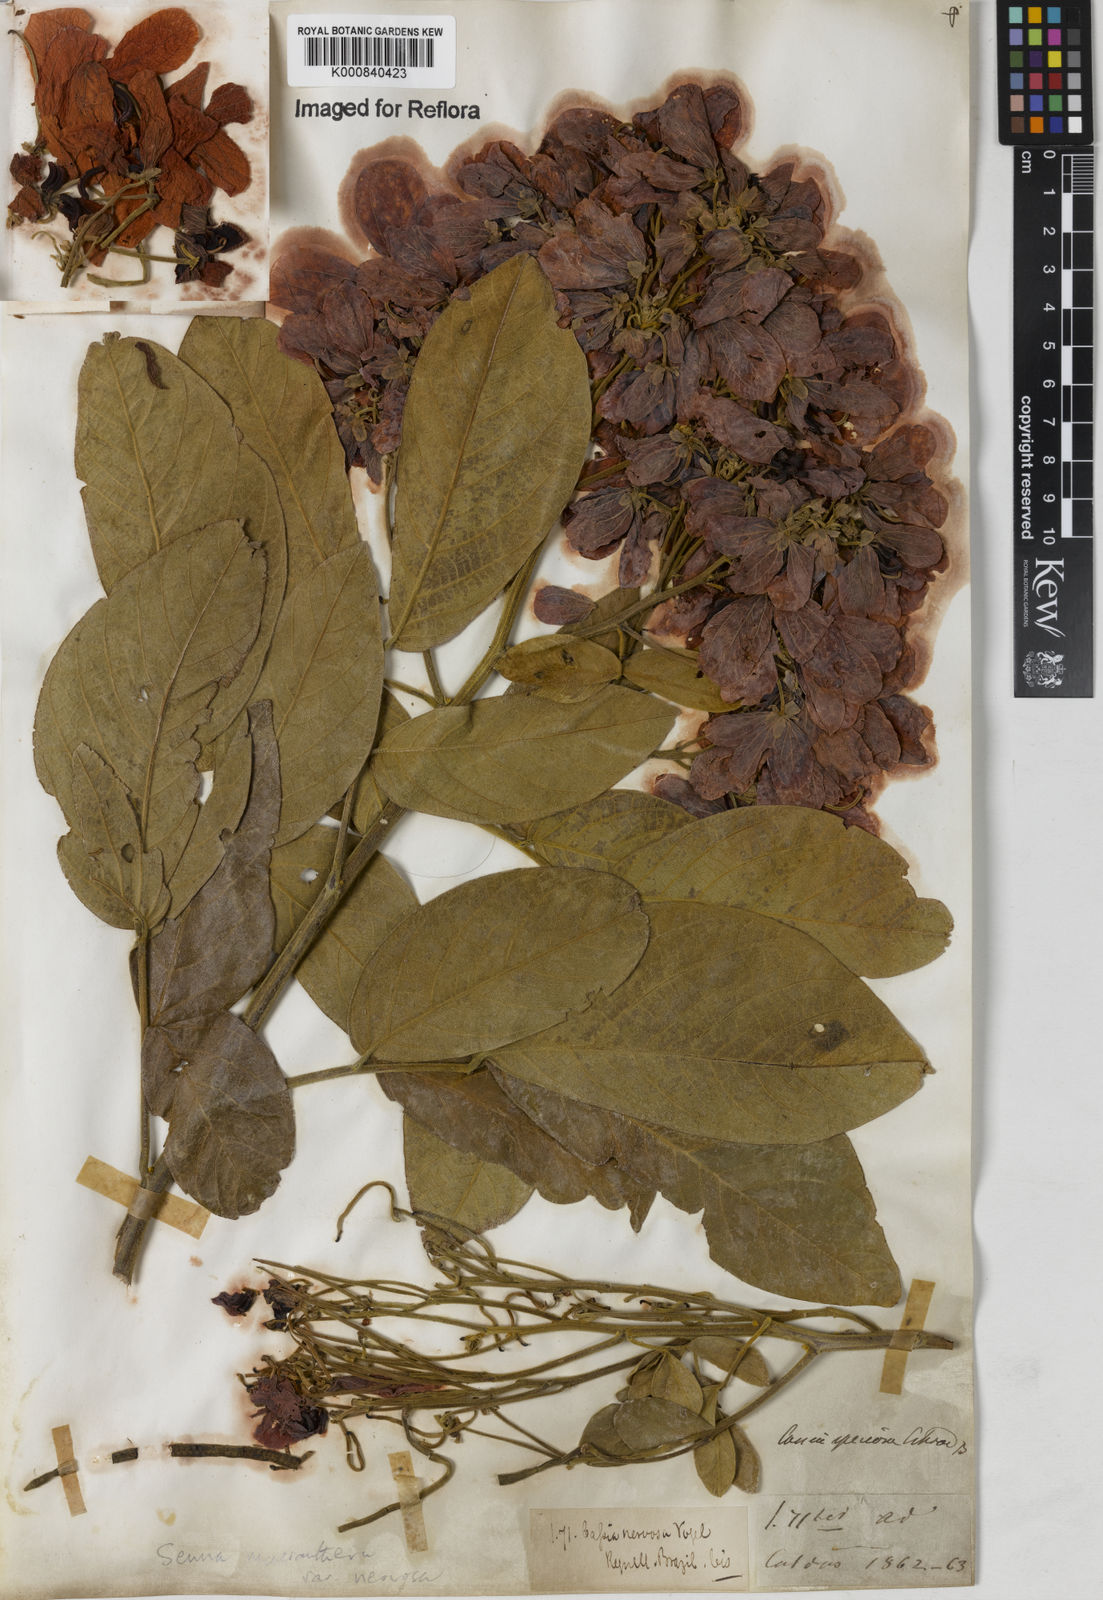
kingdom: Plantae
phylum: Tracheophyta
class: Magnoliopsida
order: Fabales
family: Fabaceae
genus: Senna
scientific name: Senna macranthera
